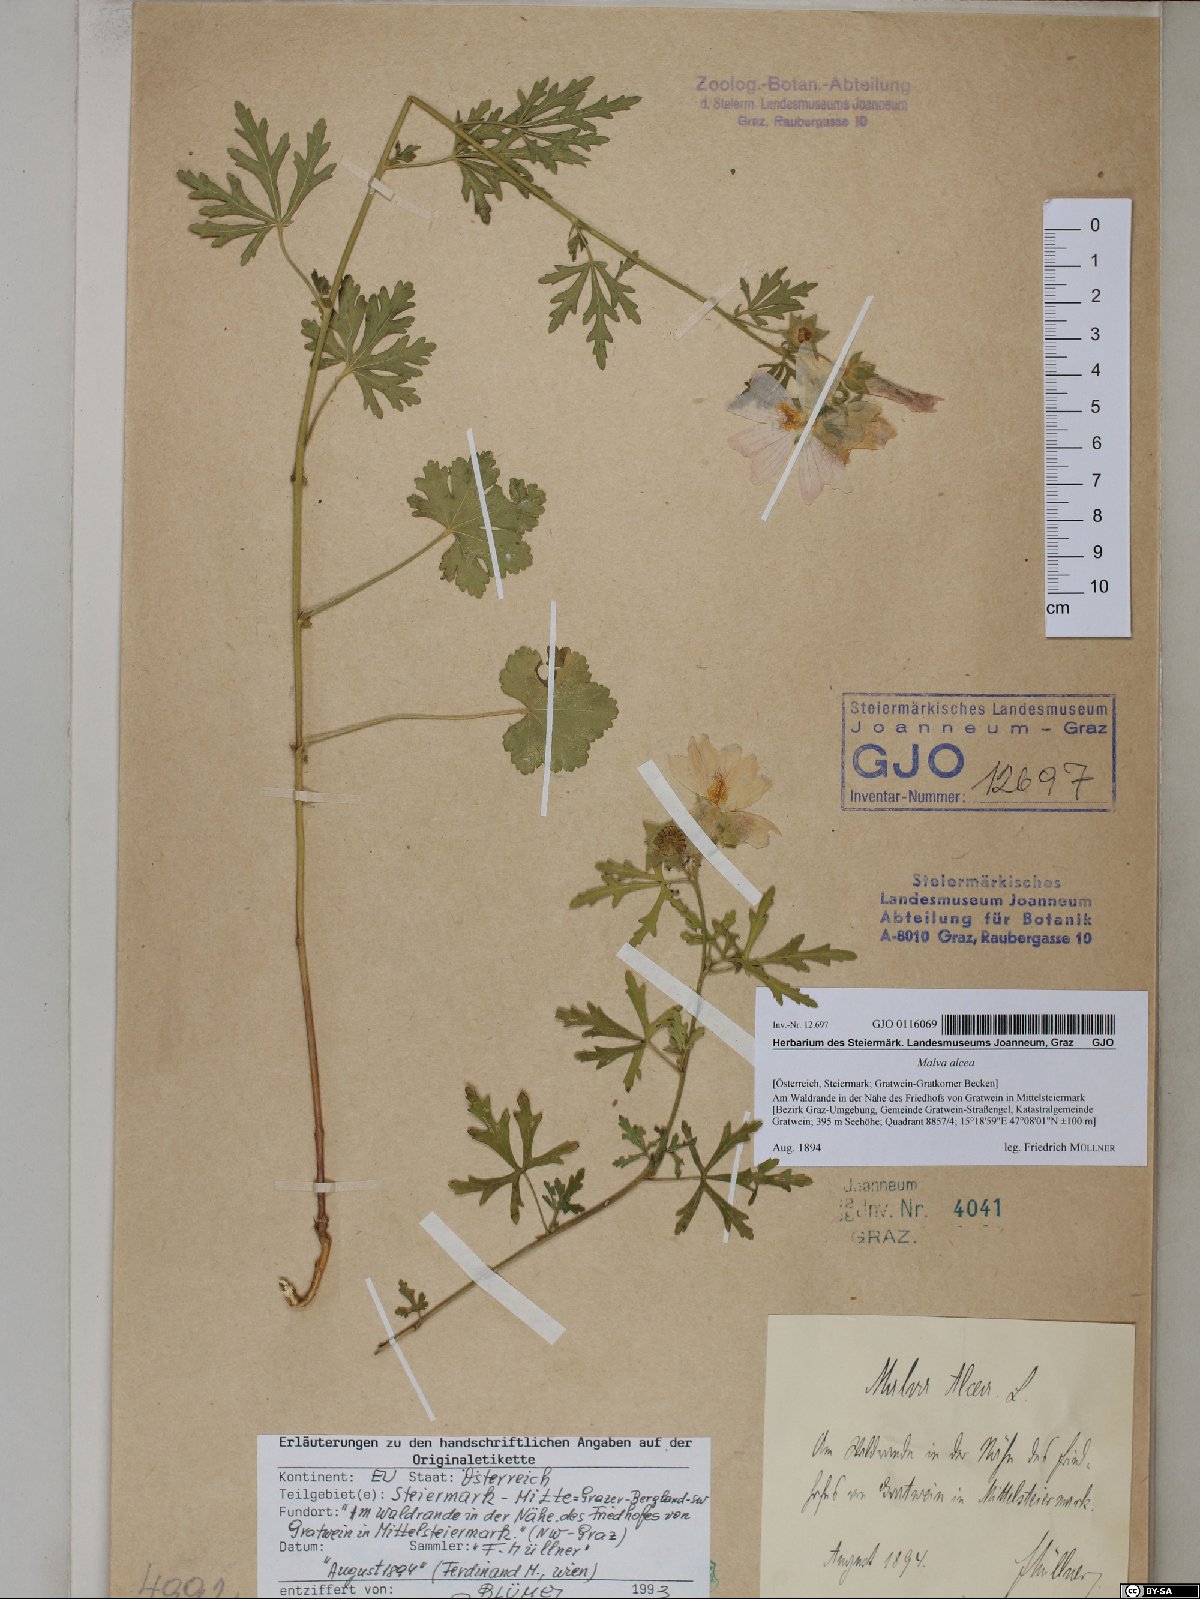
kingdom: Plantae
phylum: Tracheophyta
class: Magnoliopsida
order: Malvales
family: Malvaceae
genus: Malva
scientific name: Malva alcea
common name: Greater musk-mallow
